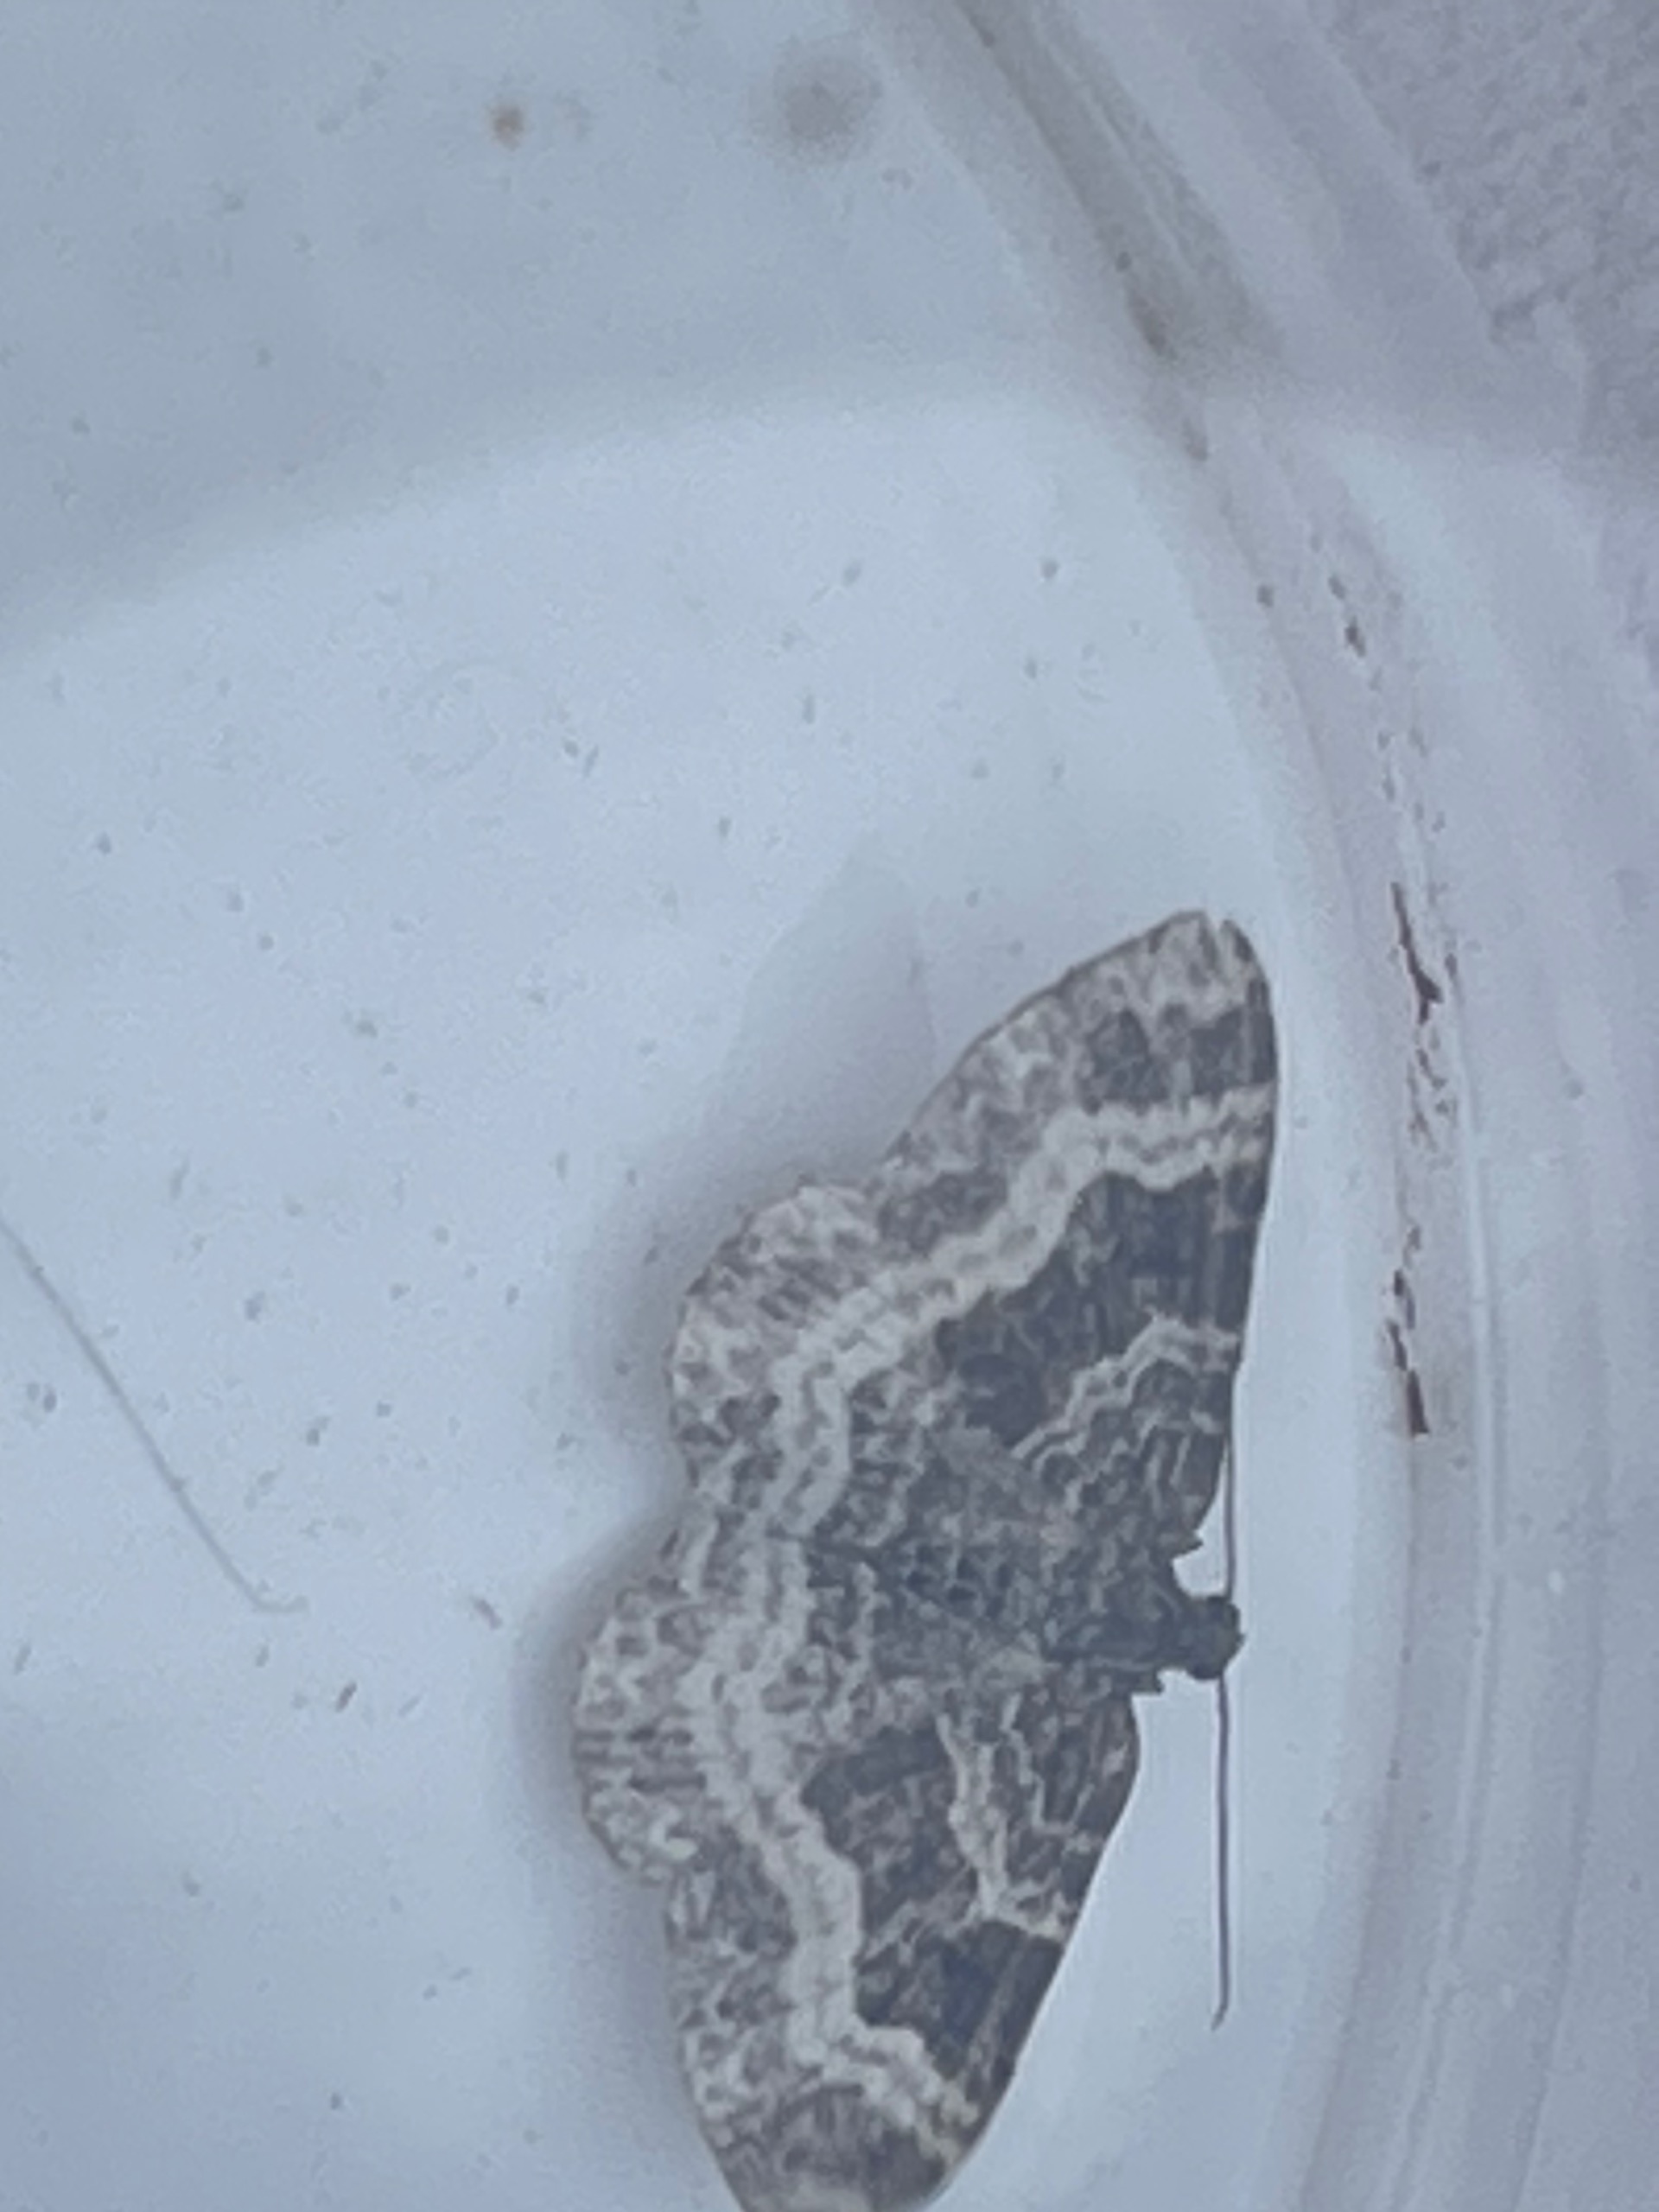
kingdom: Animalia
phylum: Arthropoda
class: Insecta
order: Lepidoptera
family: Geometridae
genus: Epirrhoe
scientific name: Epirrhoe alternata
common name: Almindelig bladmåler
